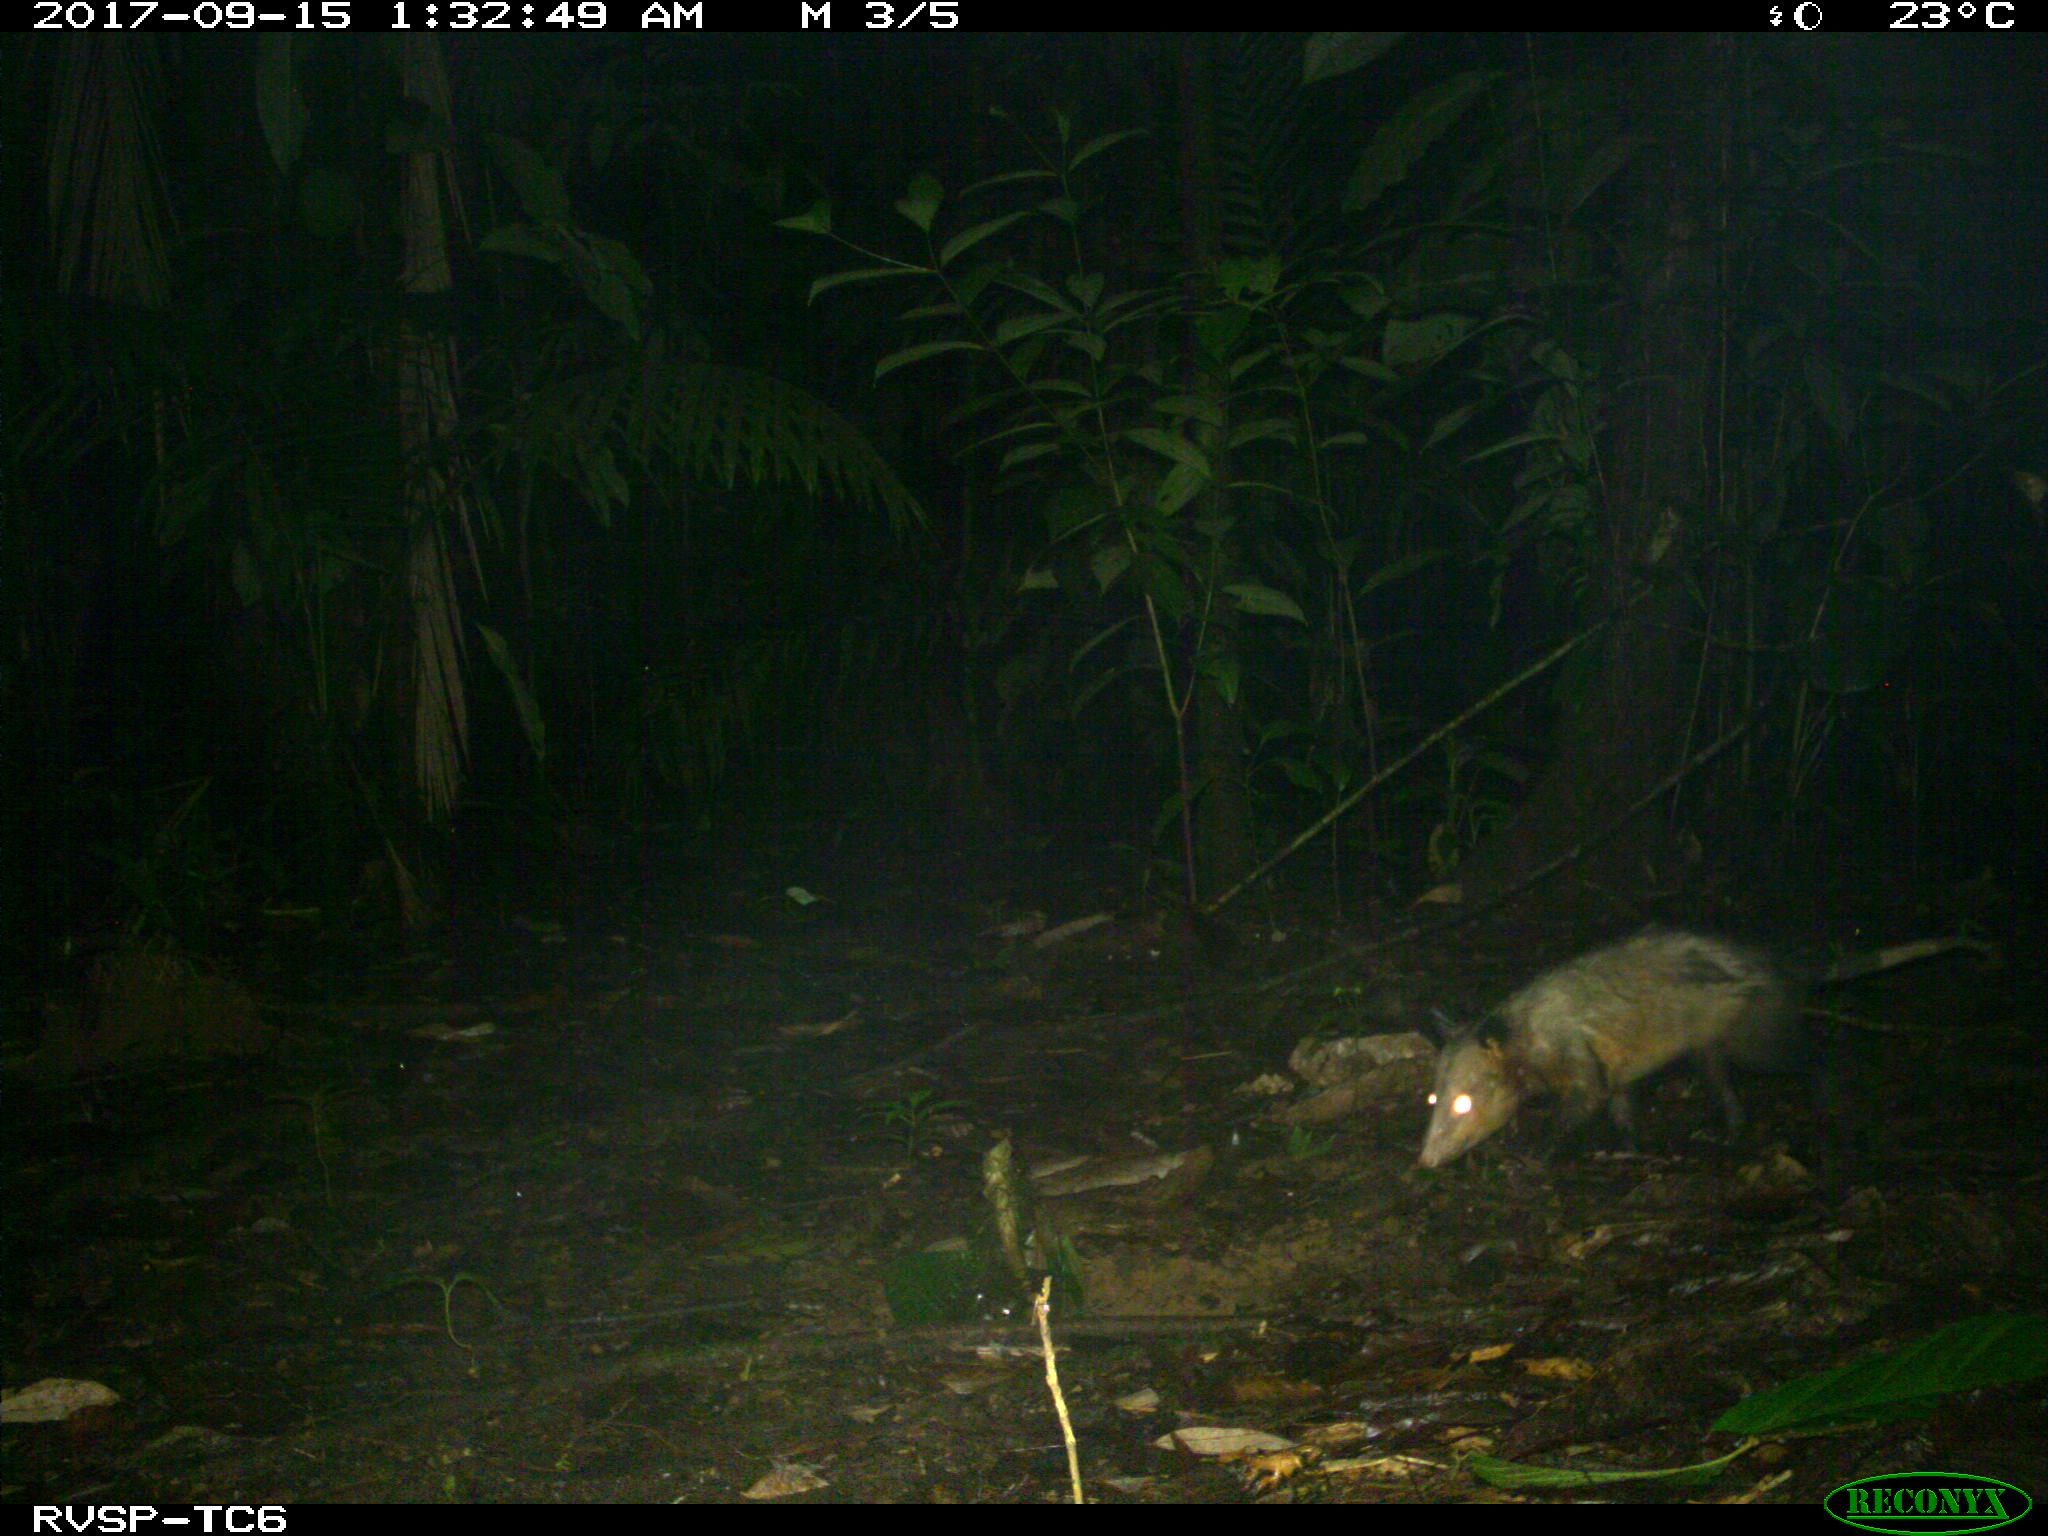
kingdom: Animalia
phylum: Chordata
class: Mammalia
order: Didelphimorphia
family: Didelphidae
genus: Didelphis
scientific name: Didelphis marsupialis
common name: Common opossum
